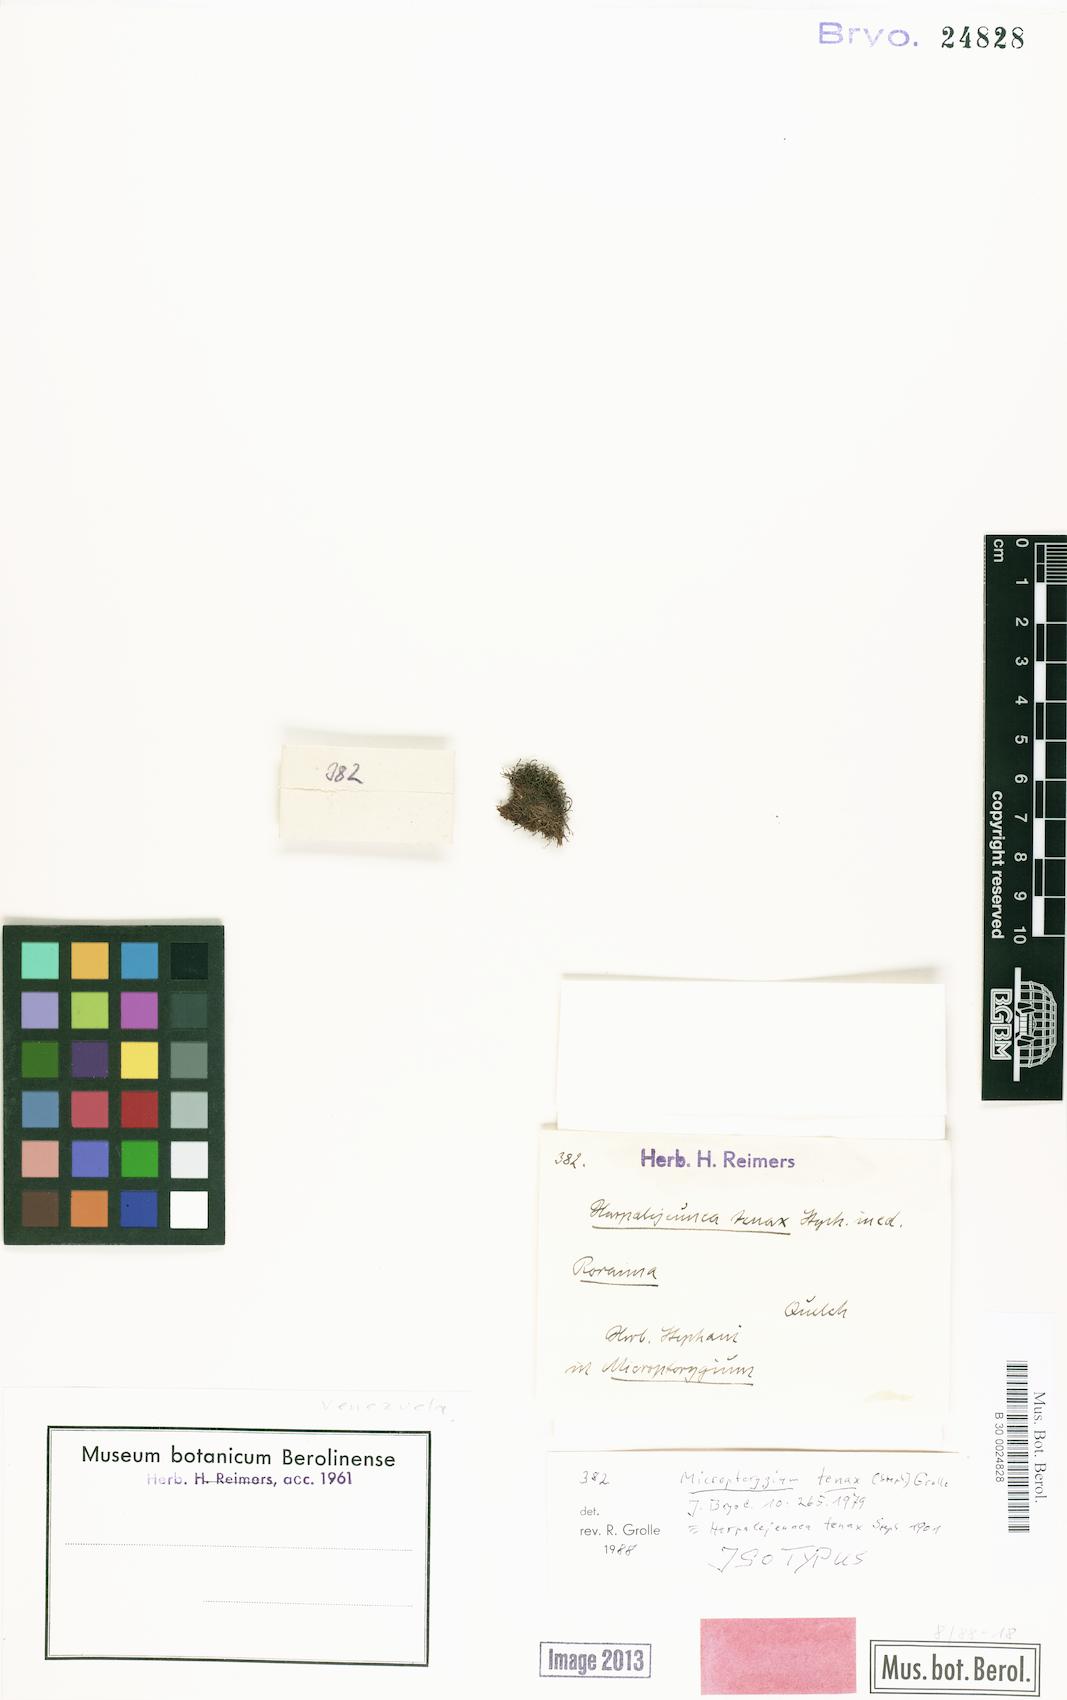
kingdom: Plantae
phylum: Marchantiophyta
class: Jungermanniopsida
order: Jungermanniales
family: Lepidoziaceae
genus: Micropterygium
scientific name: Micropterygium tenax
